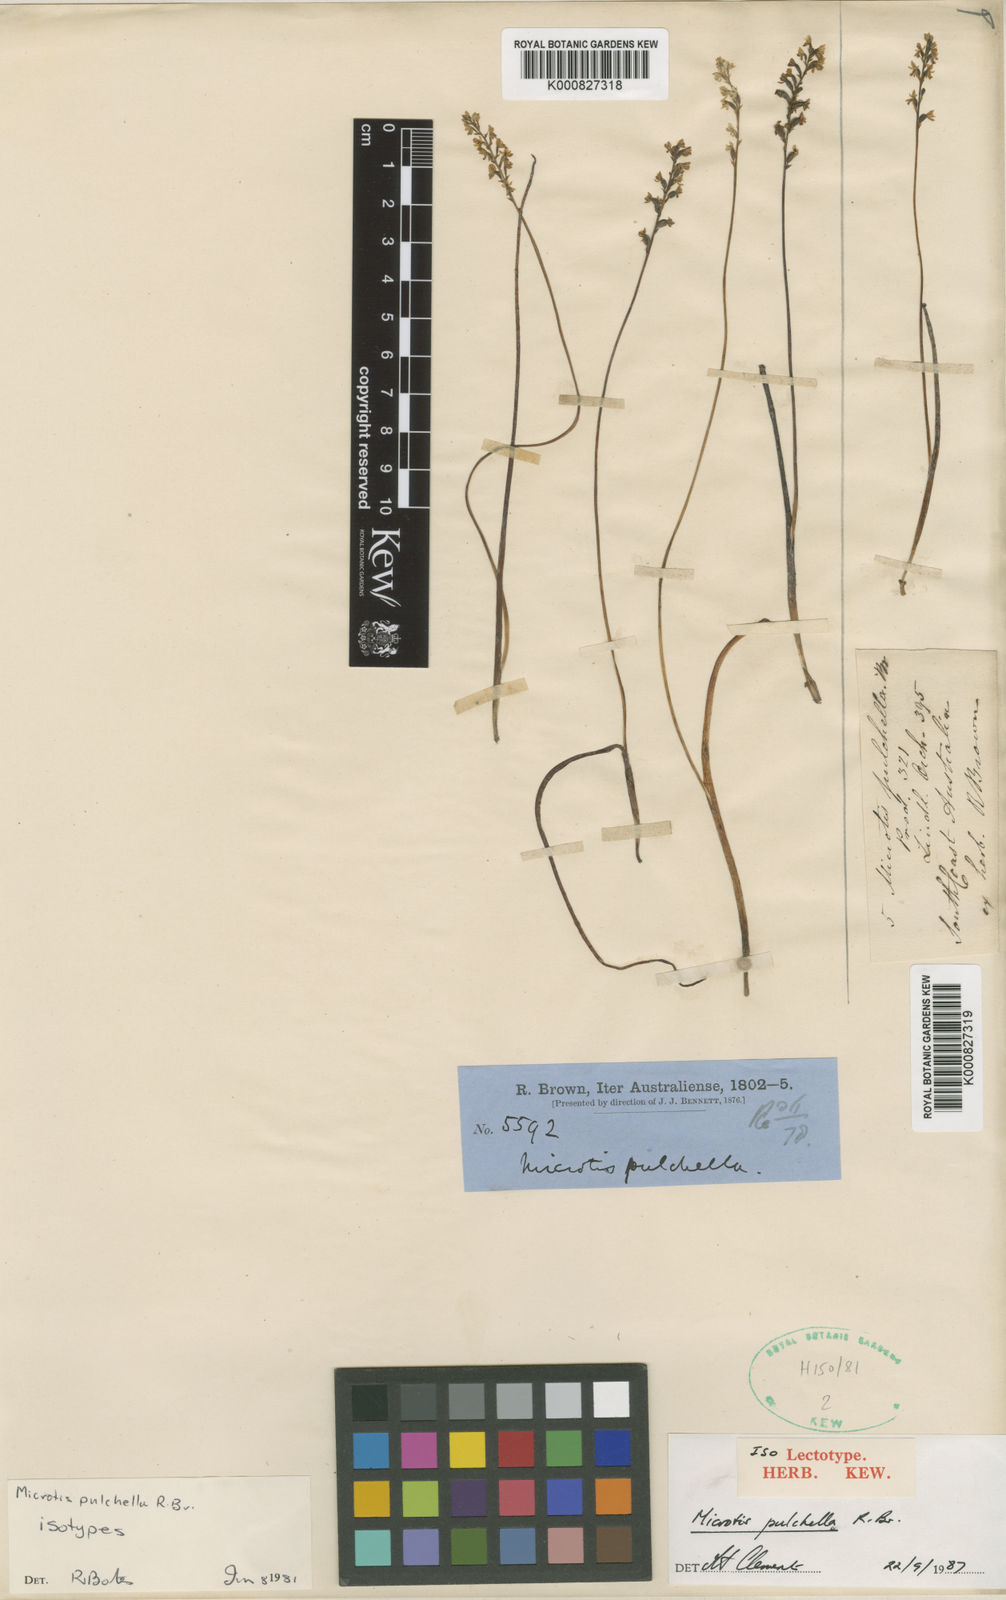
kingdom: Plantae
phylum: Tracheophyta
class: Liliopsida
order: Asparagales
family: Orchidaceae
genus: Microtis
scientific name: Microtis pulchella
